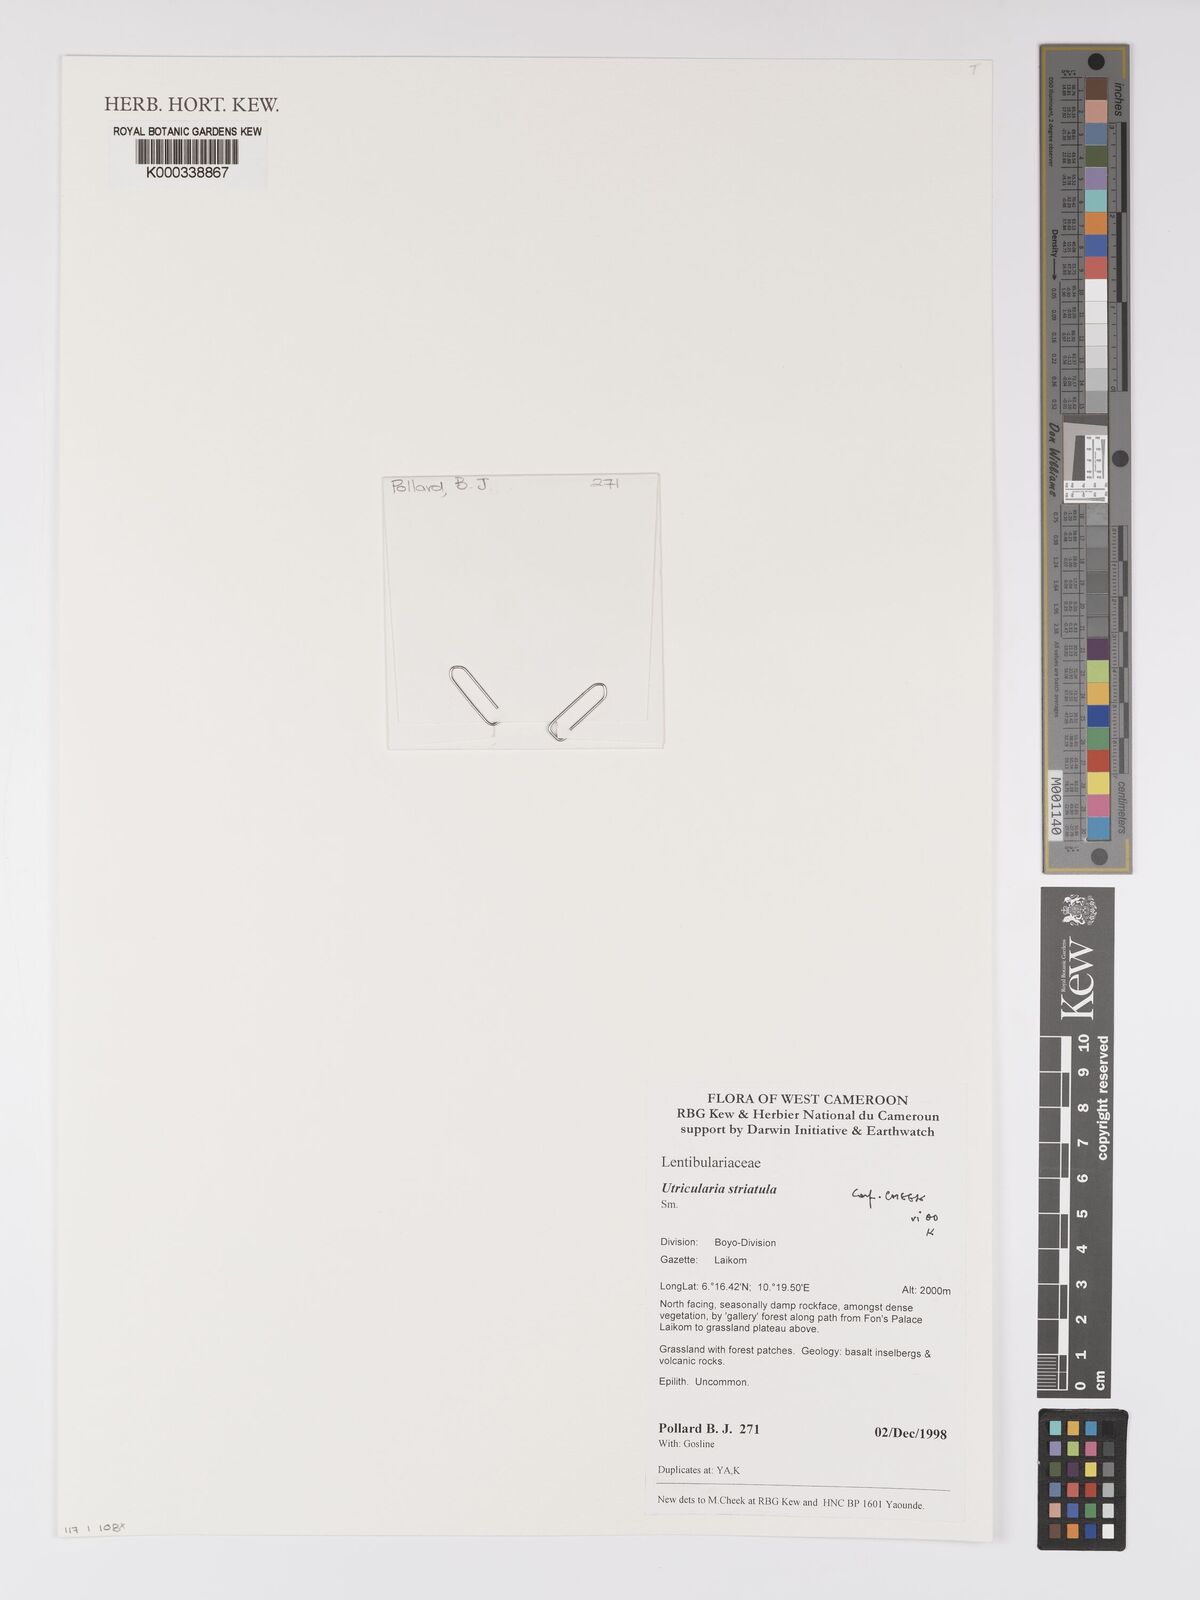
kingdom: Plantae
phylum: Tracheophyta
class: Magnoliopsida
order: Lamiales
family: Lentibulariaceae
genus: Utricularia
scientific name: Utricularia striatula
